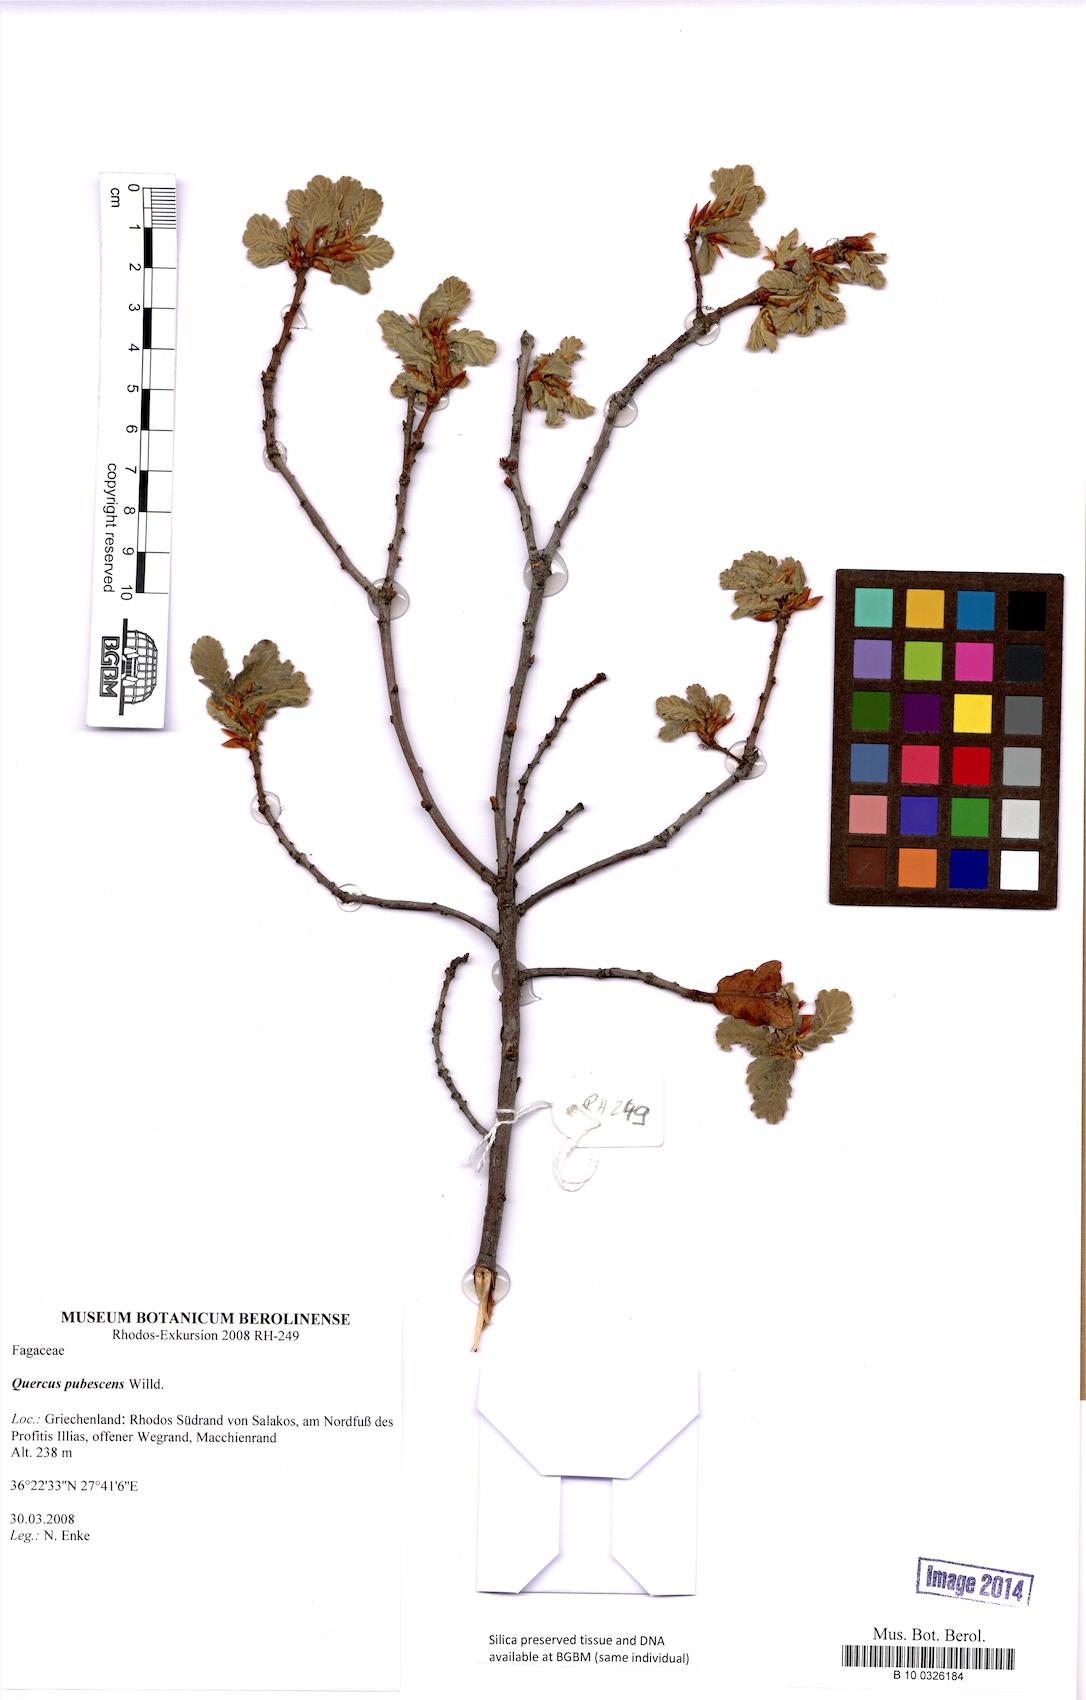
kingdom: Plantae
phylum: Tracheophyta
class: Magnoliopsida
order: Fagales
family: Fagaceae
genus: Quercus
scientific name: Quercus pubescens
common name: Downy oak
